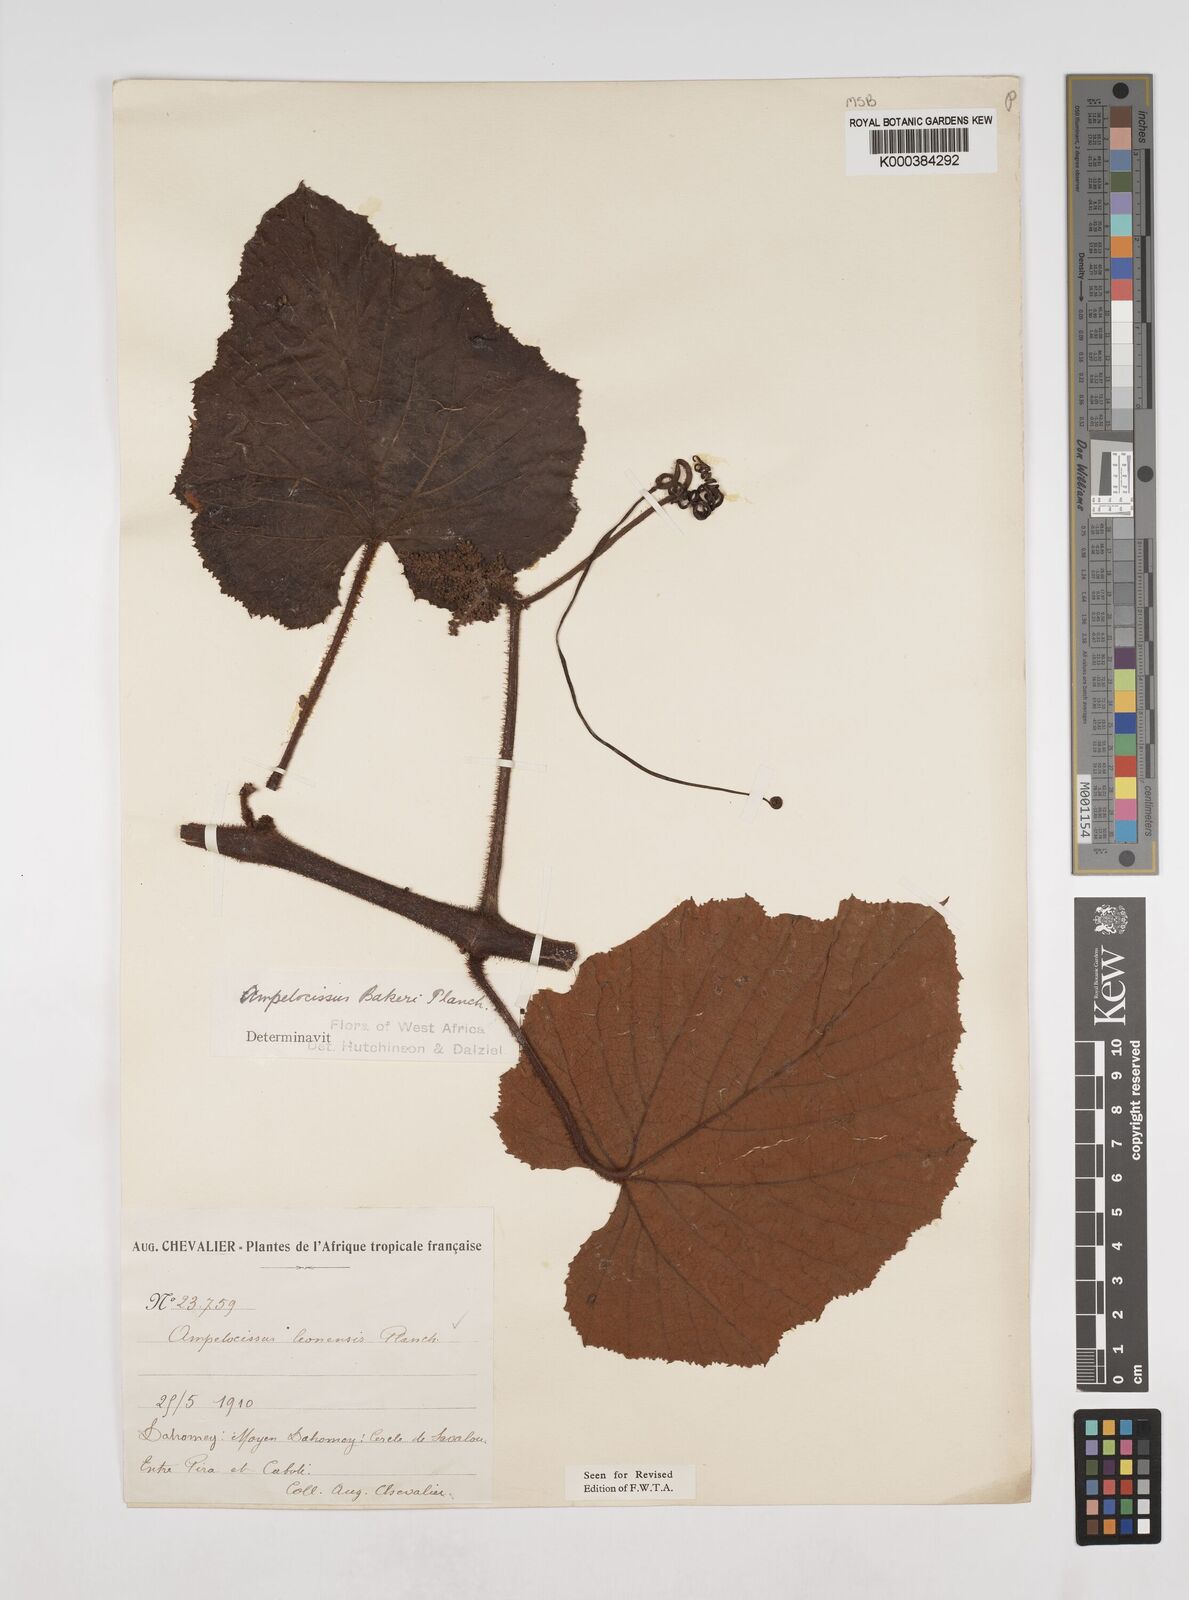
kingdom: Plantae
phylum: Tracheophyta
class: Magnoliopsida
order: Vitales
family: Vitaceae
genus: Ampelocissus
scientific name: Ampelocissus leonensis
